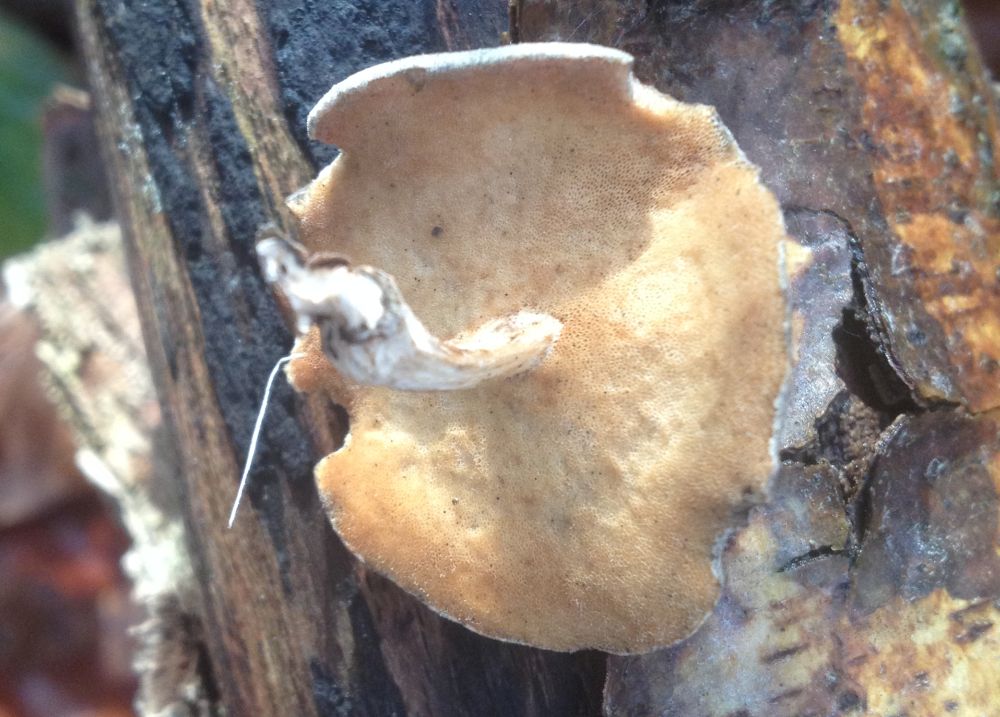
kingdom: Fungi
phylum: Basidiomycota
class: Agaricomycetes
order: Polyporales
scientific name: Polyporales
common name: poresvampordenen
